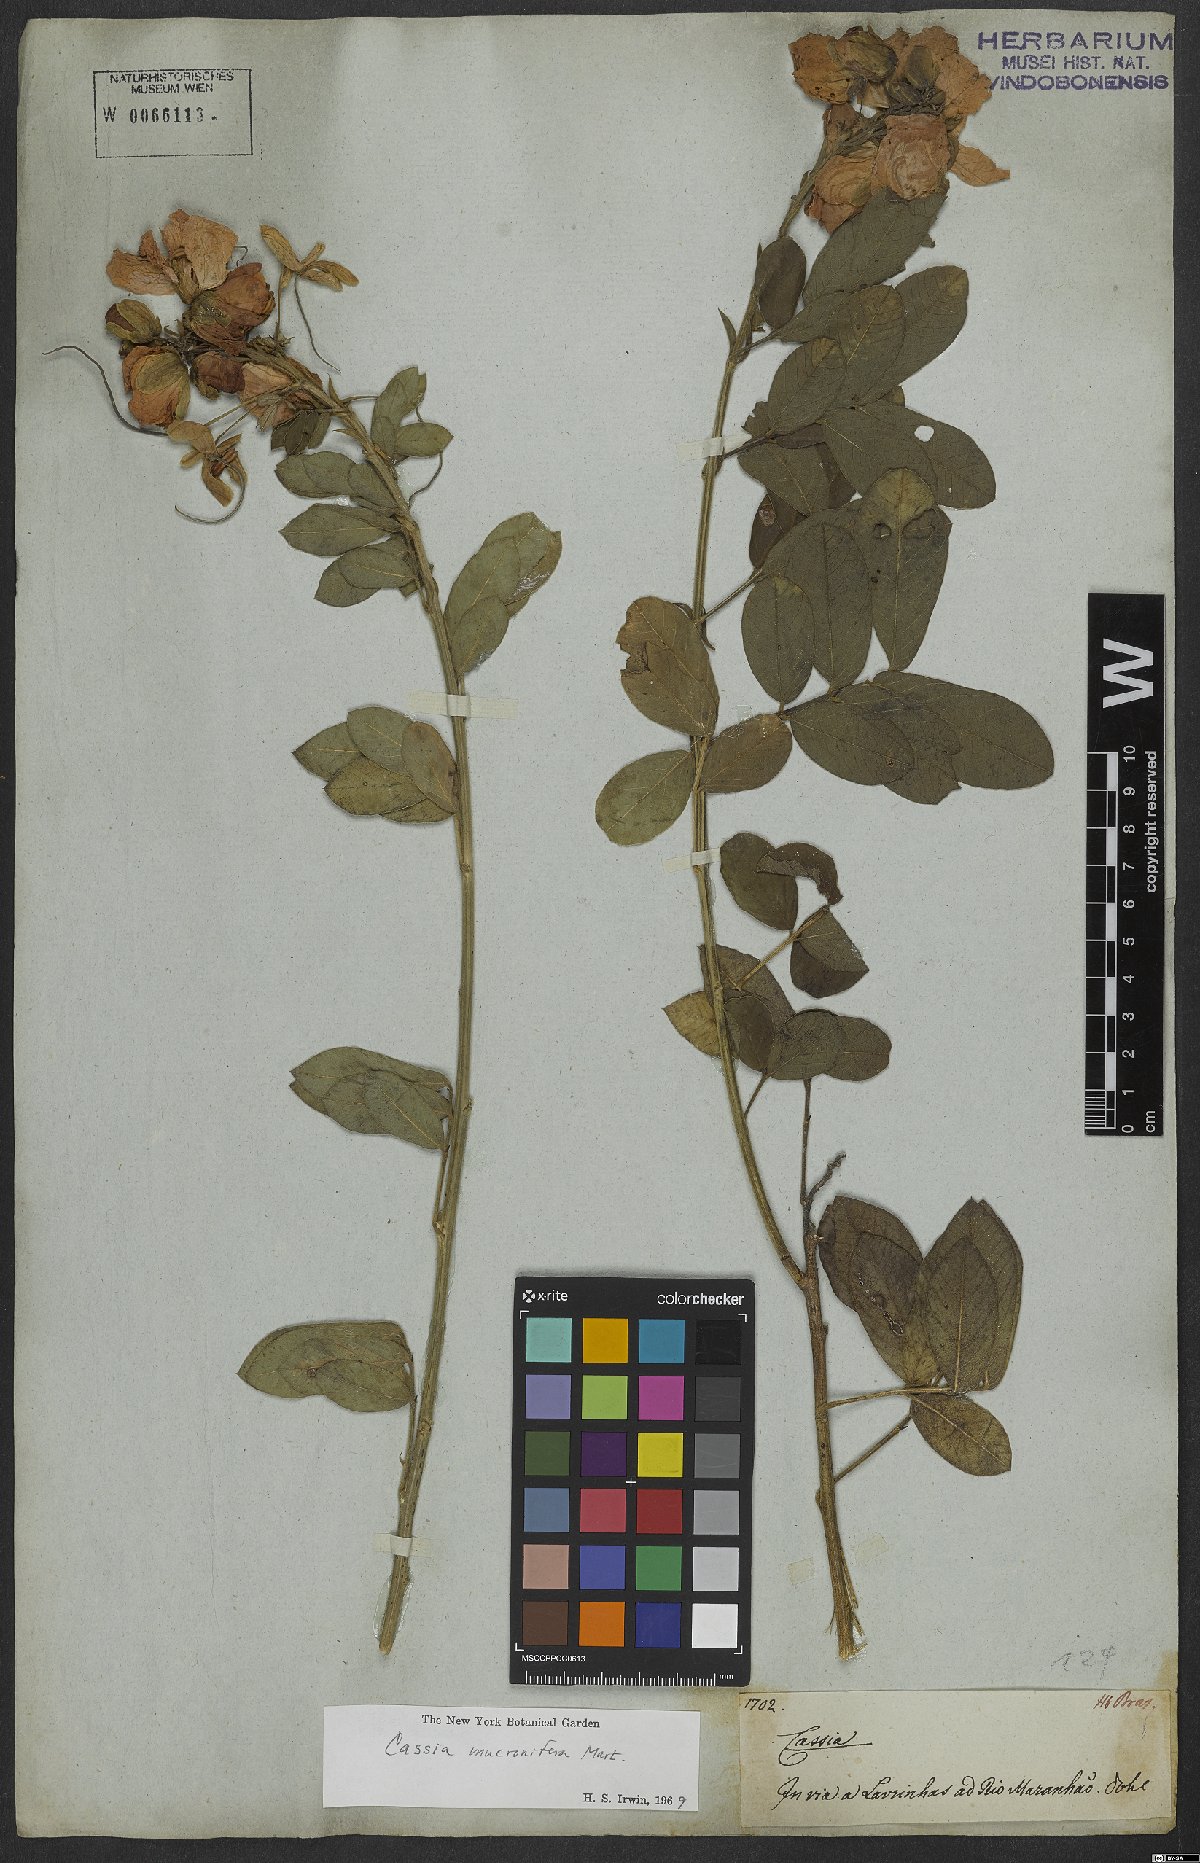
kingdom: Plantae
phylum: Tracheophyta
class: Magnoliopsida
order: Fabales
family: Fabaceae
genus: Senna
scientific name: Senna mucronifera
